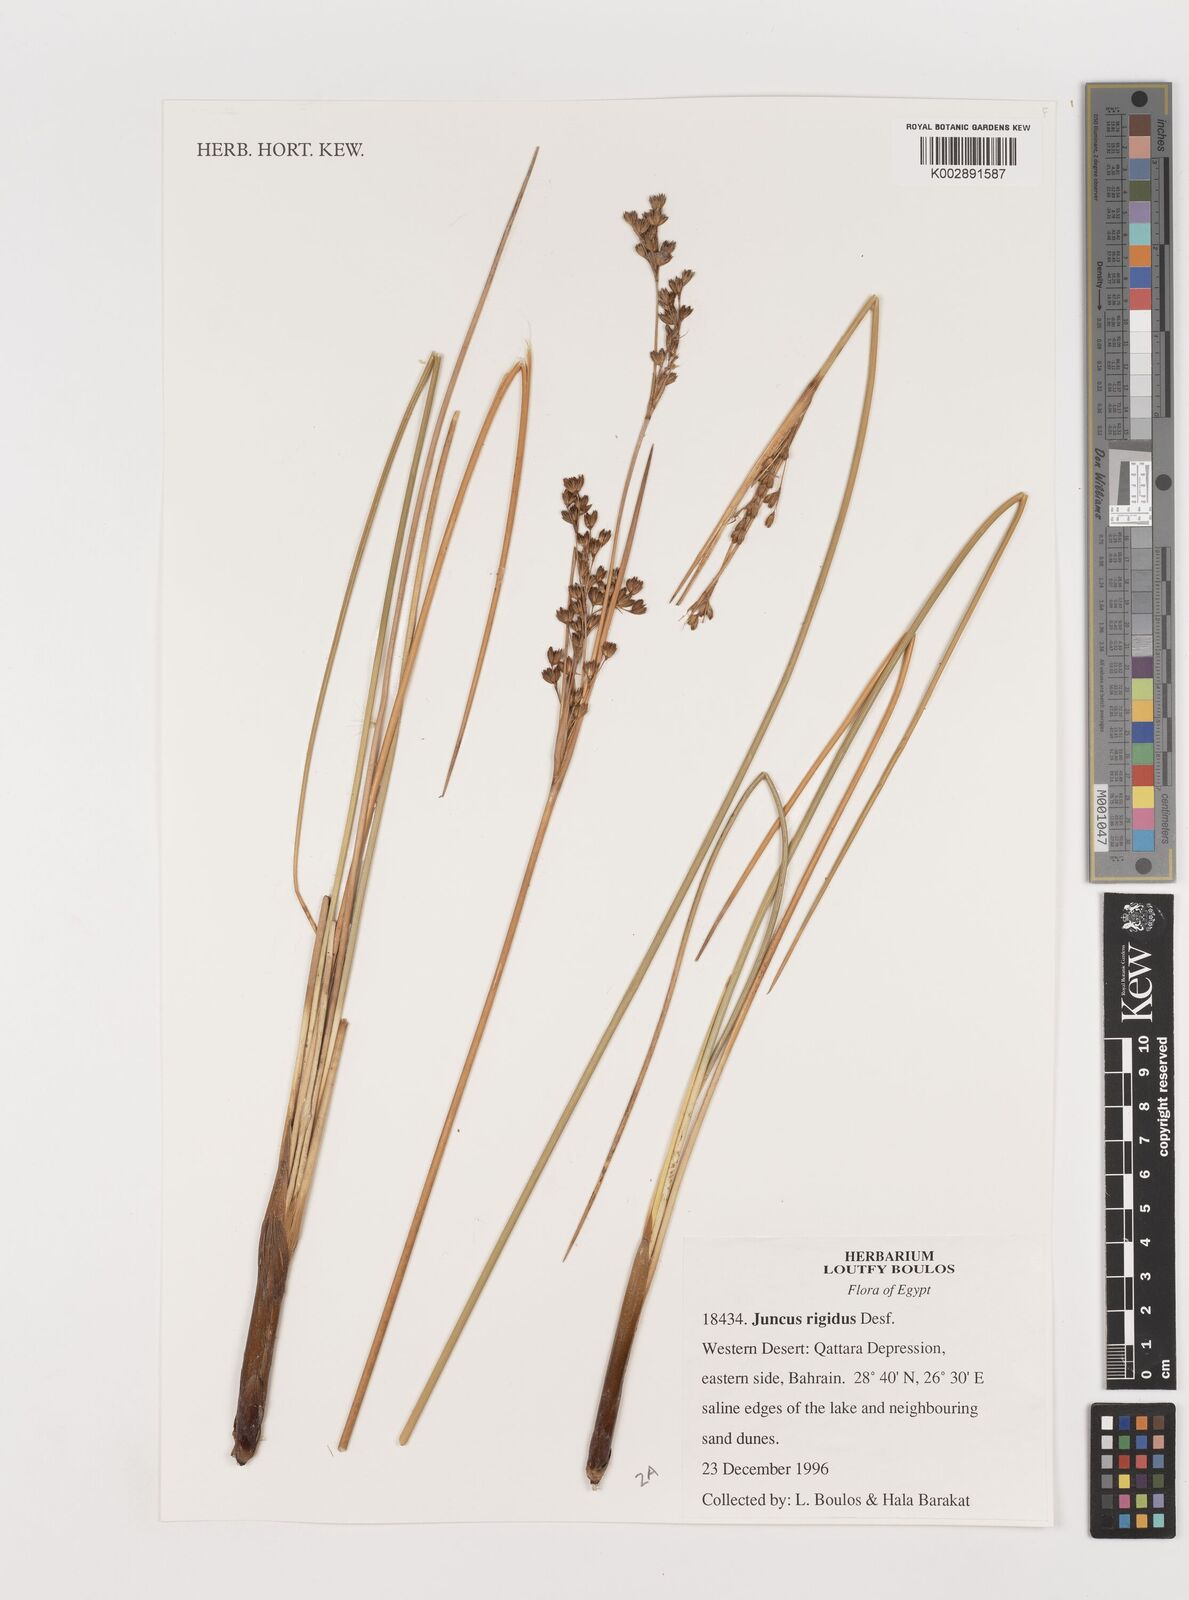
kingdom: Plantae
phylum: Tracheophyta
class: Liliopsida
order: Poales
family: Juncaceae
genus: Juncus
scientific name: Juncus rigidus
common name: Hard sea rush
